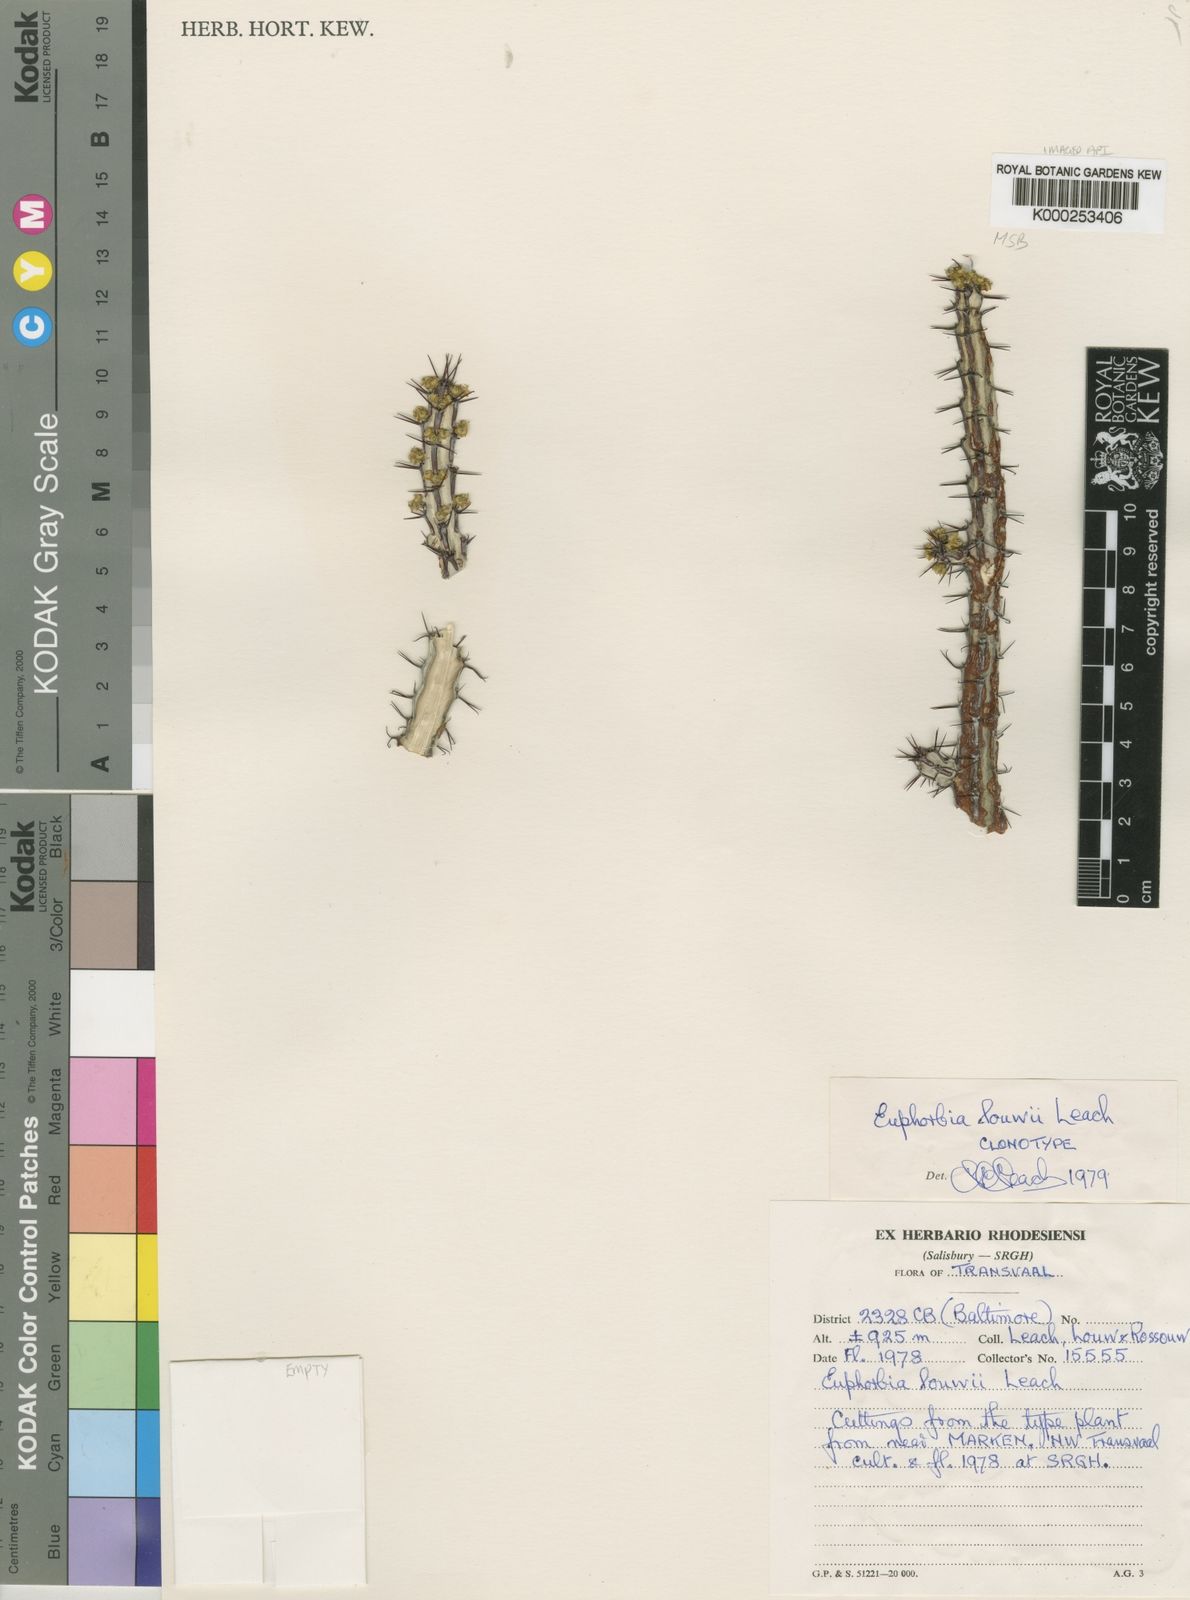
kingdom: Plantae
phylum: Tracheophyta
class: Magnoliopsida
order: Malpighiales
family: Euphorbiaceae
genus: Euphorbia
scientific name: Euphorbia louwii
